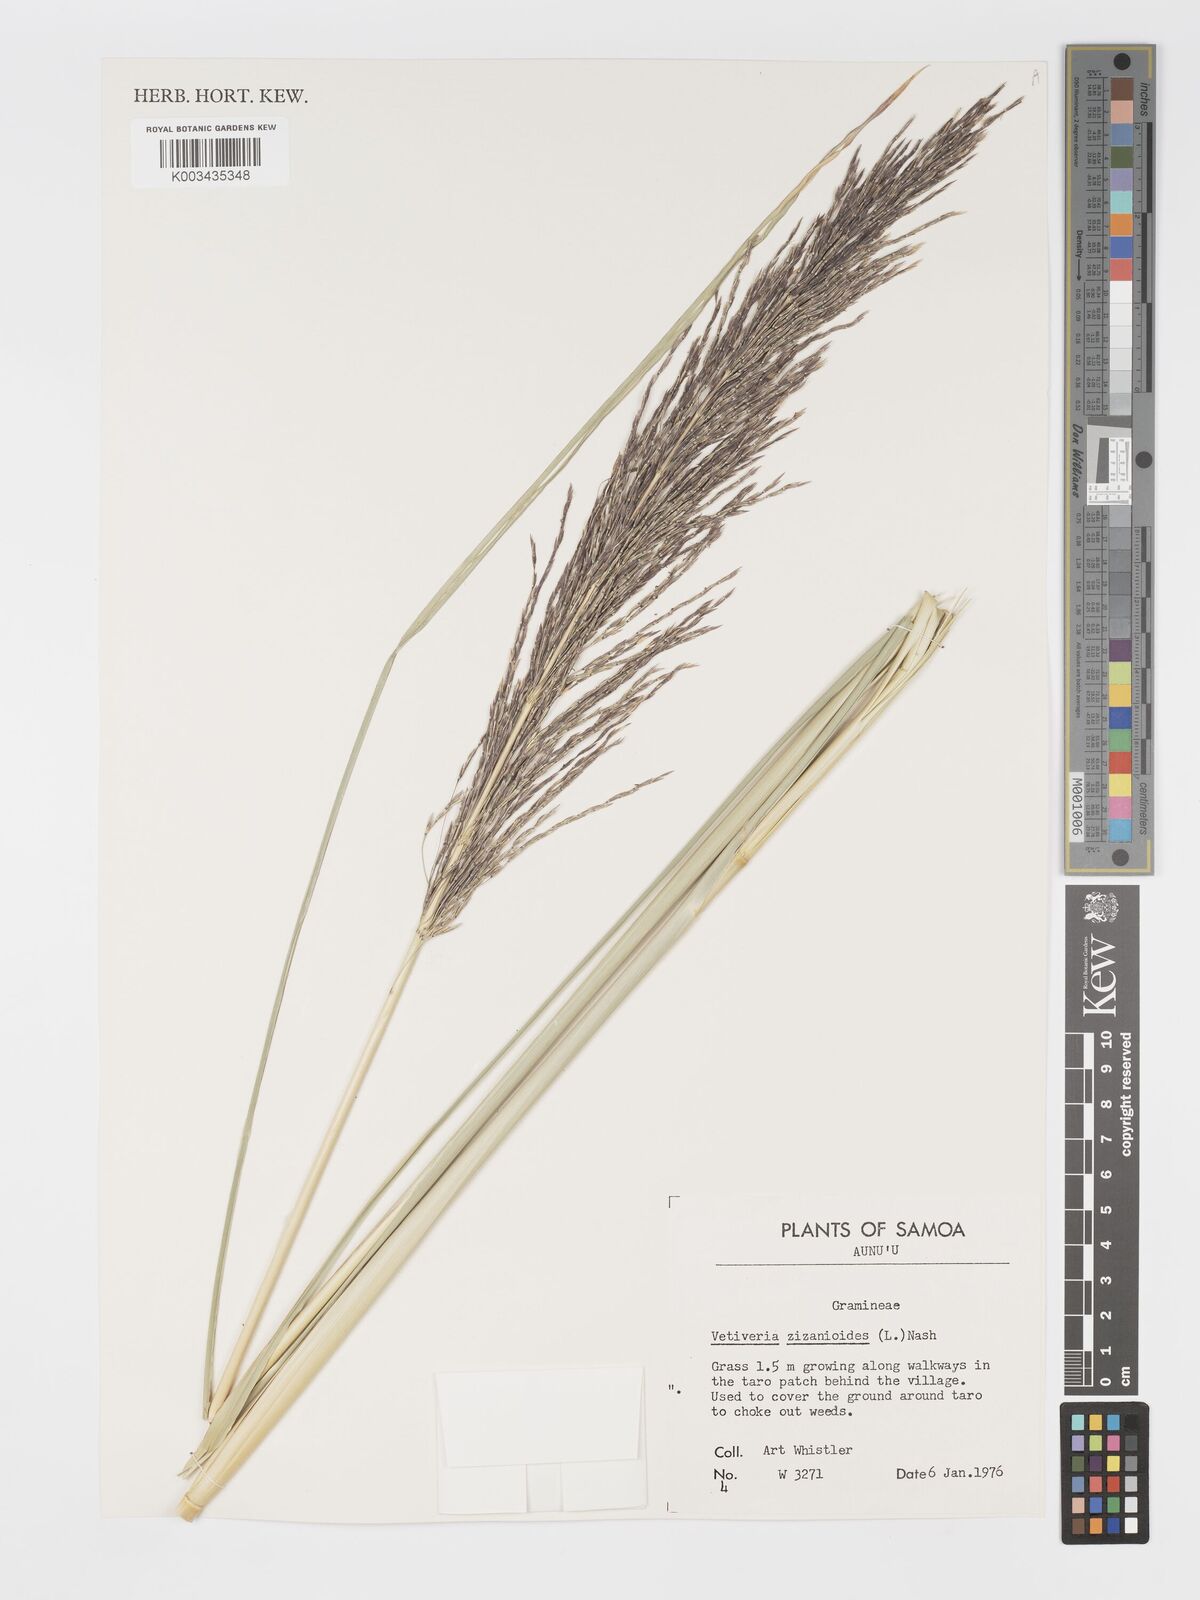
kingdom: Plantae
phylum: Tracheophyta
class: Liliopsida
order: Poales
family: Poaceae
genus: Chrysopogon
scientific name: Chrysopogon zizanioides
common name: False beardgrass
